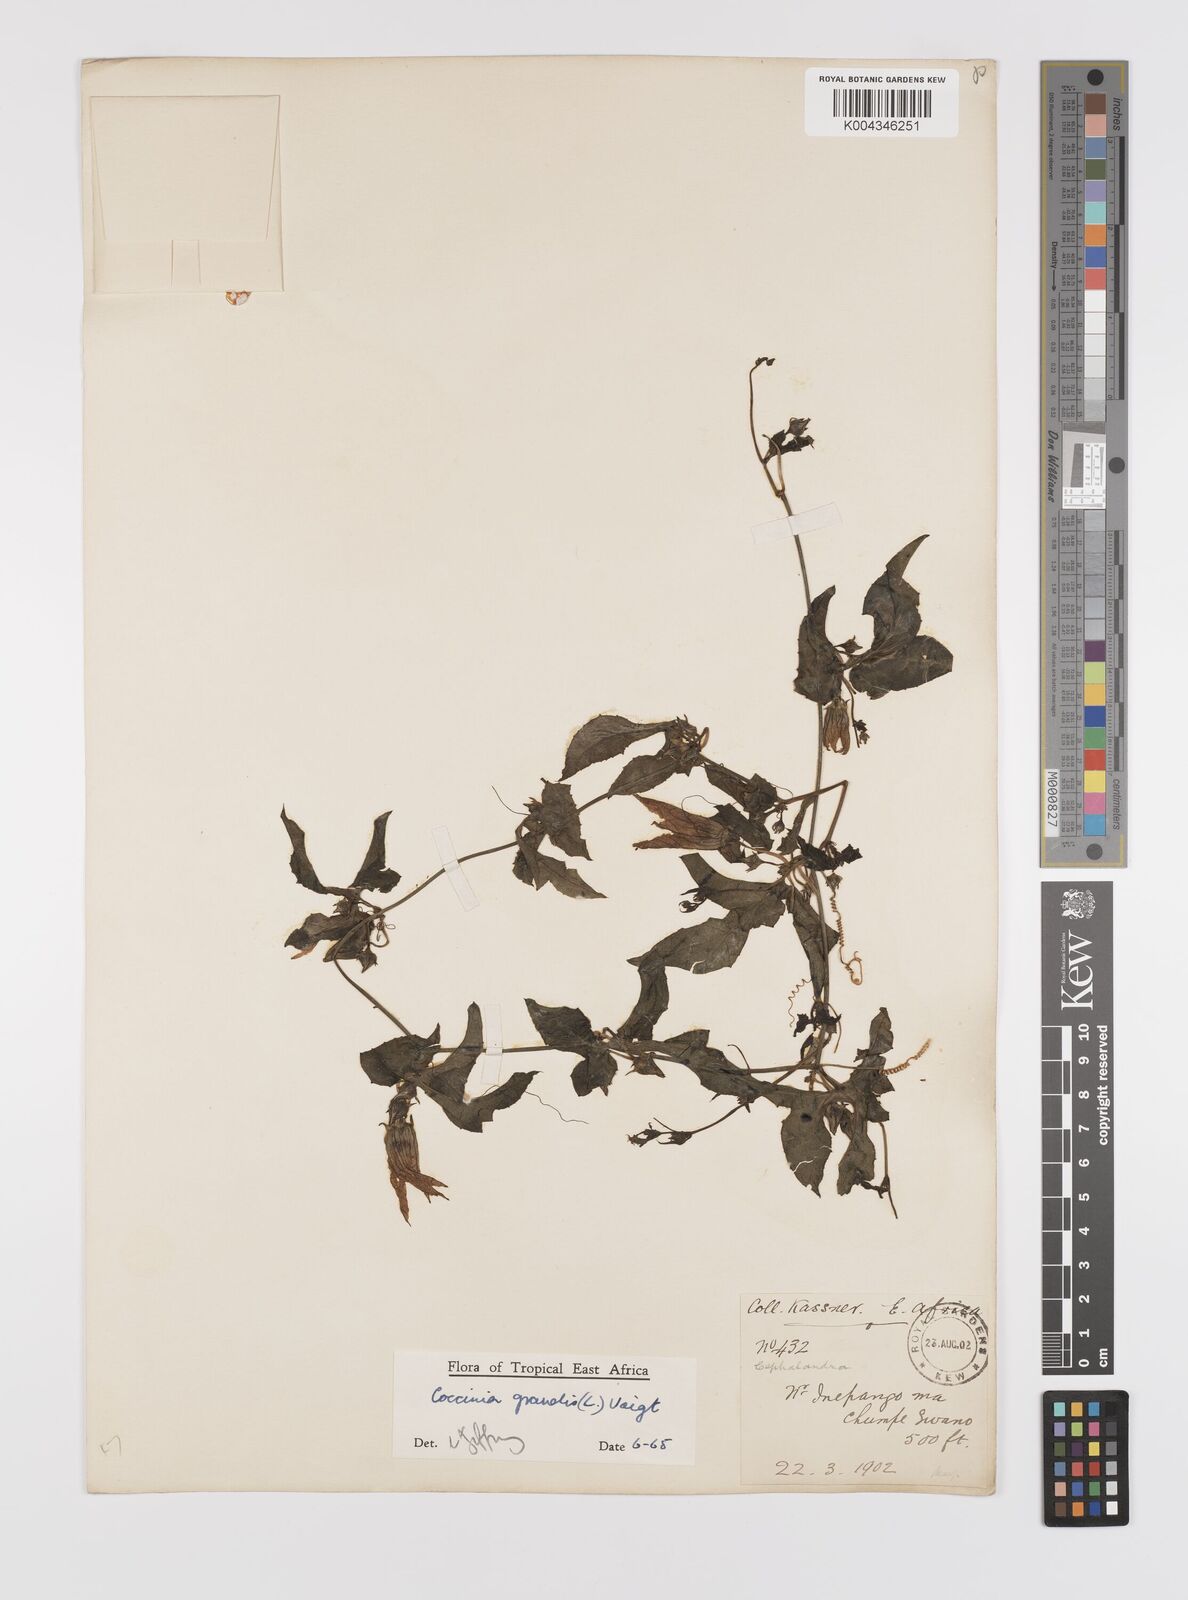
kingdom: Plantae
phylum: Tracheophyta
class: Magnoliopsida
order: Cucurbitales
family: Cucurbitaceae
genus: Coccinia
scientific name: Coccinia grandis
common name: Ivy gourd
